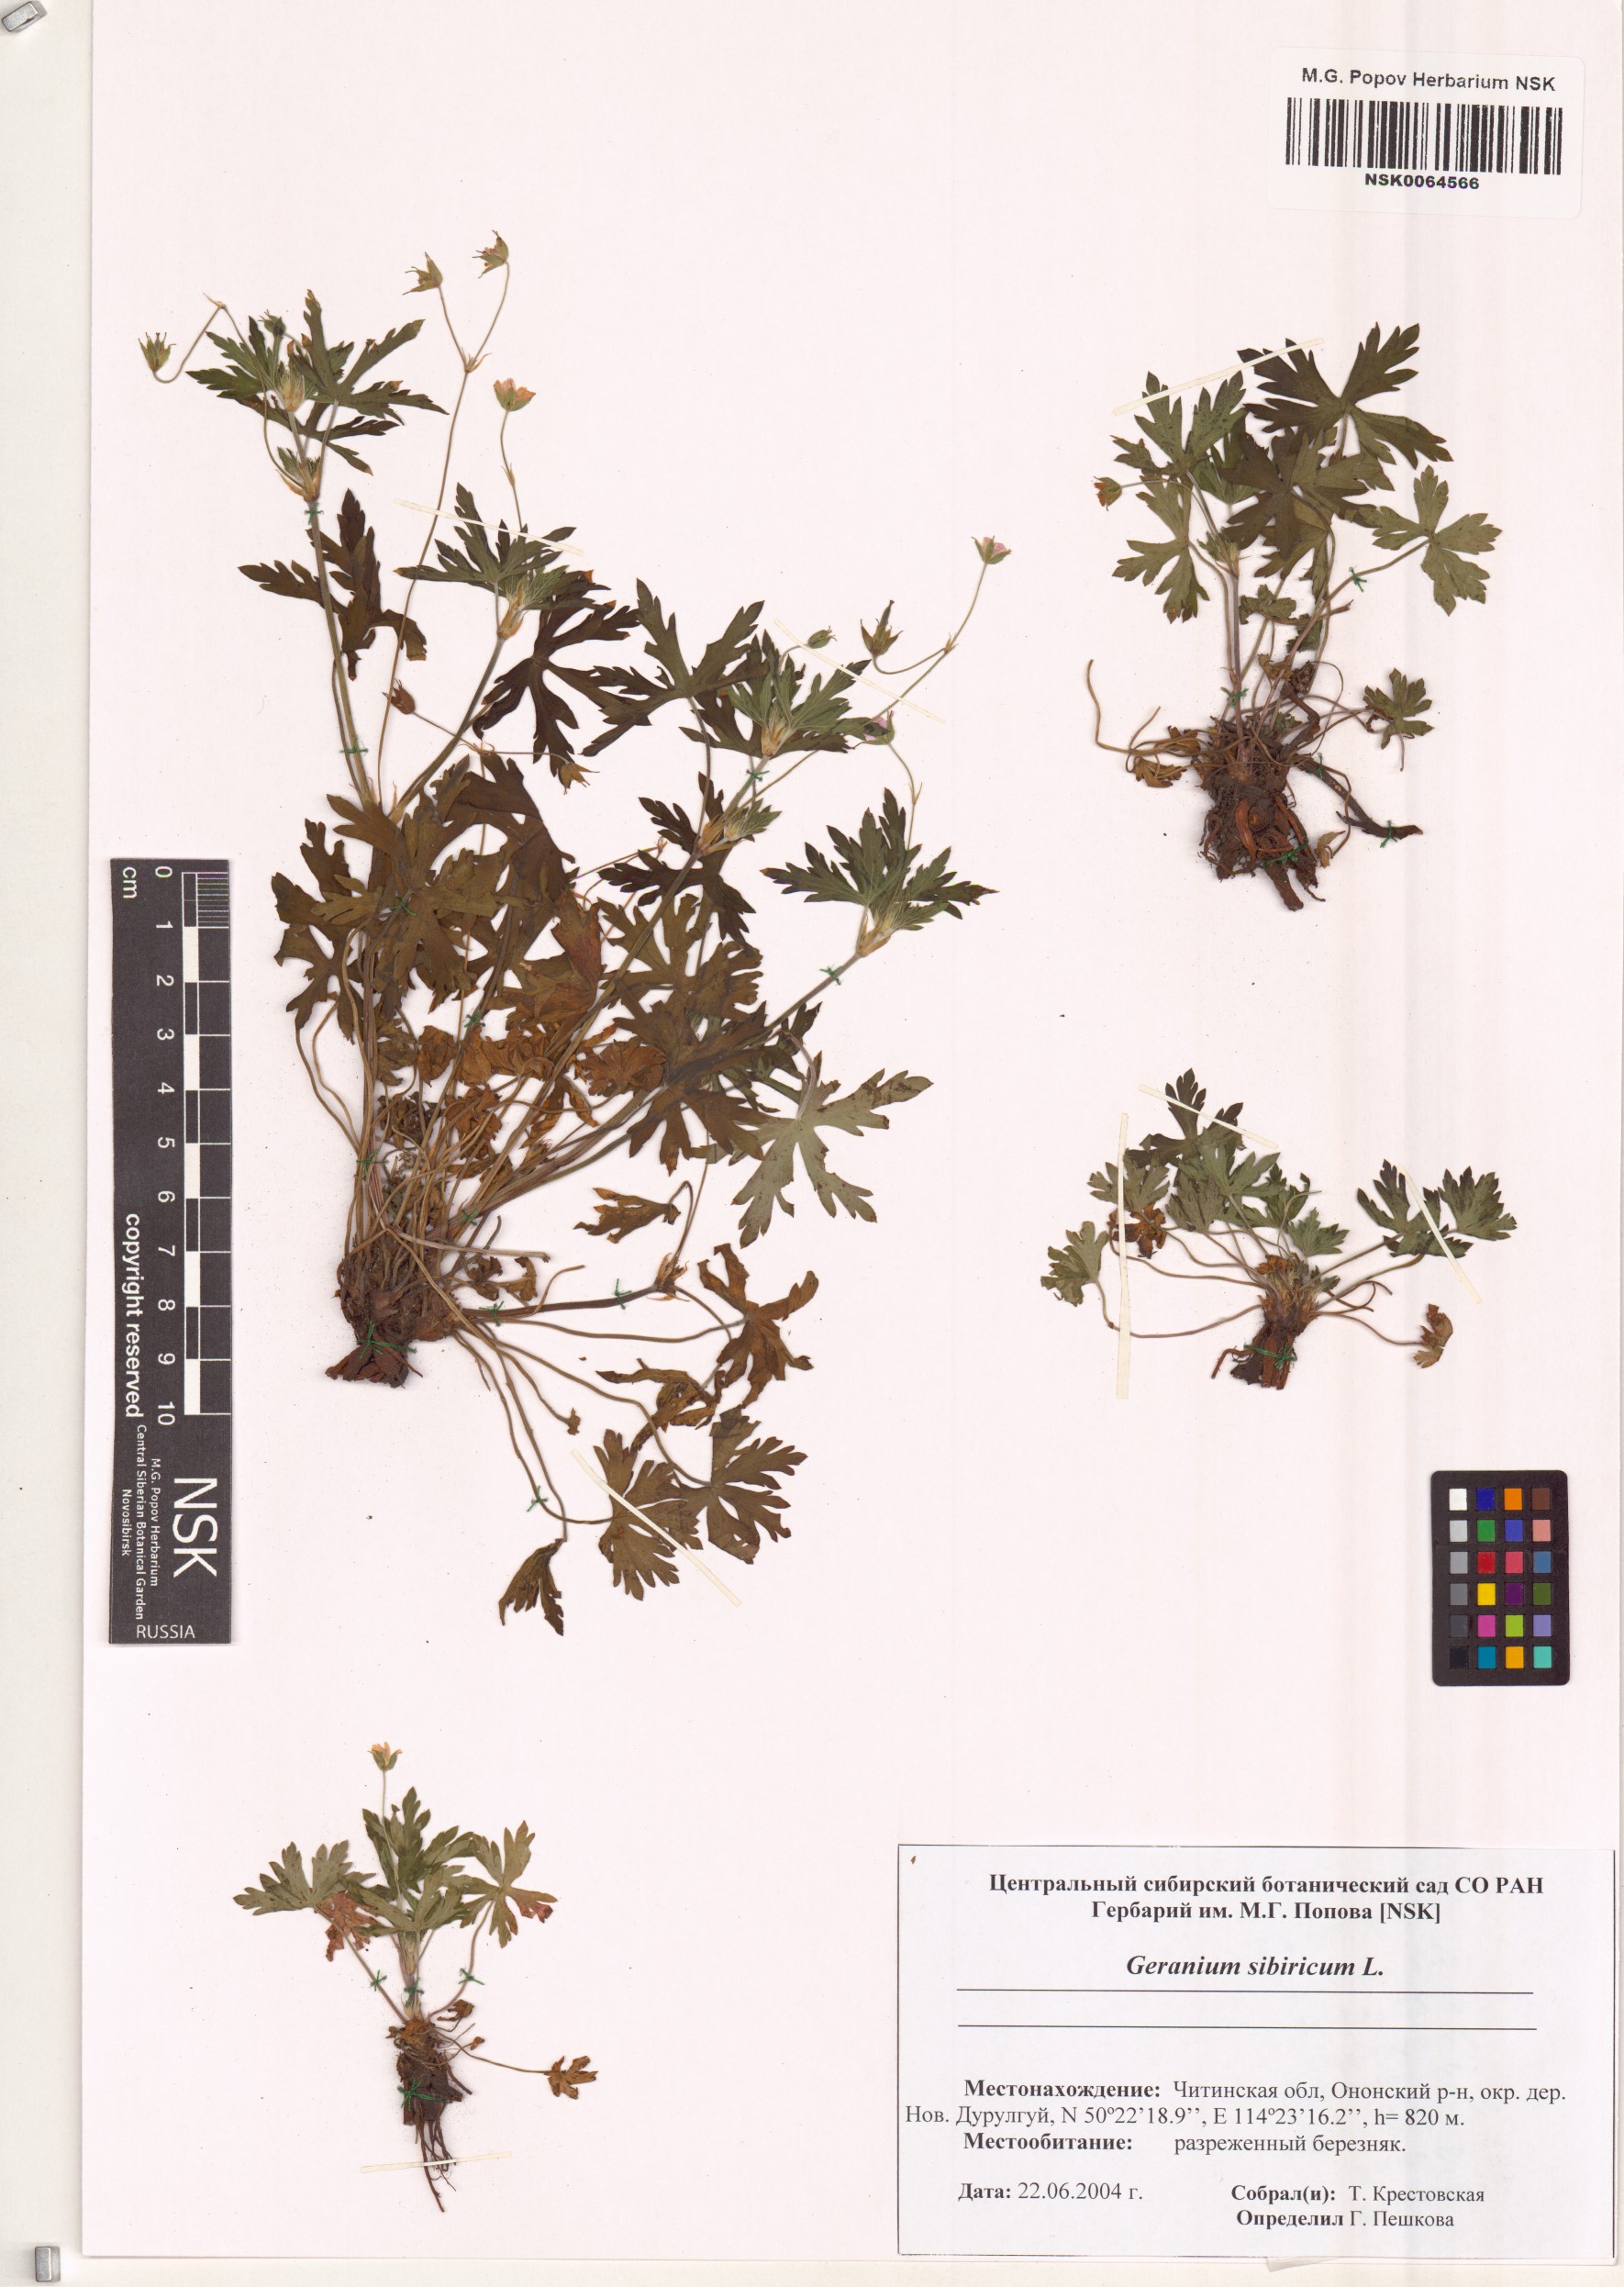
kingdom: Plantae
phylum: Tracheophyta
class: Magnoliopsida
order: Geraniales
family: Geraniaceae
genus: Geranium
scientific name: Geranium sibiricum
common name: Siberian crane's-bill
